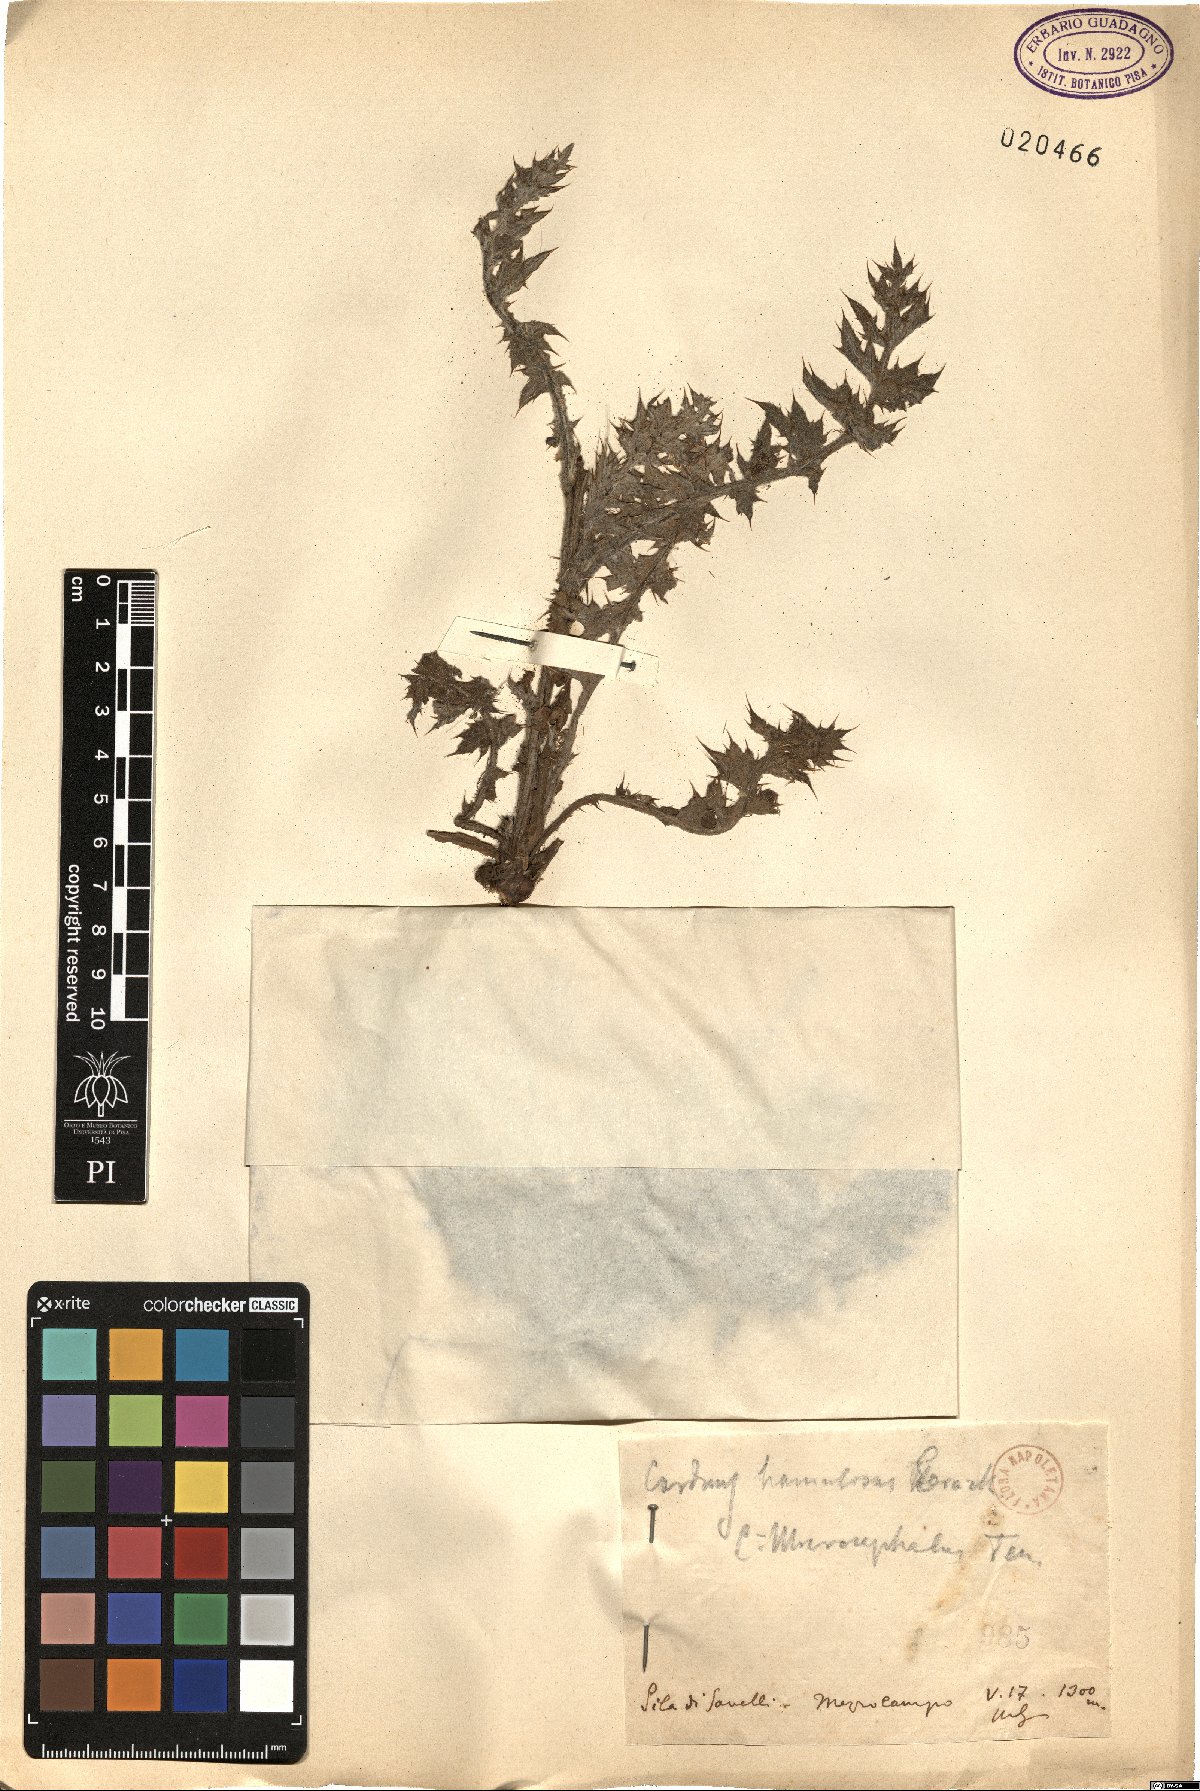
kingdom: Plantae
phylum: Tracheophyta
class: Magnoliopsida
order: Asterales
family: Asteraceae
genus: Carduus
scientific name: Carduus hamulosus
